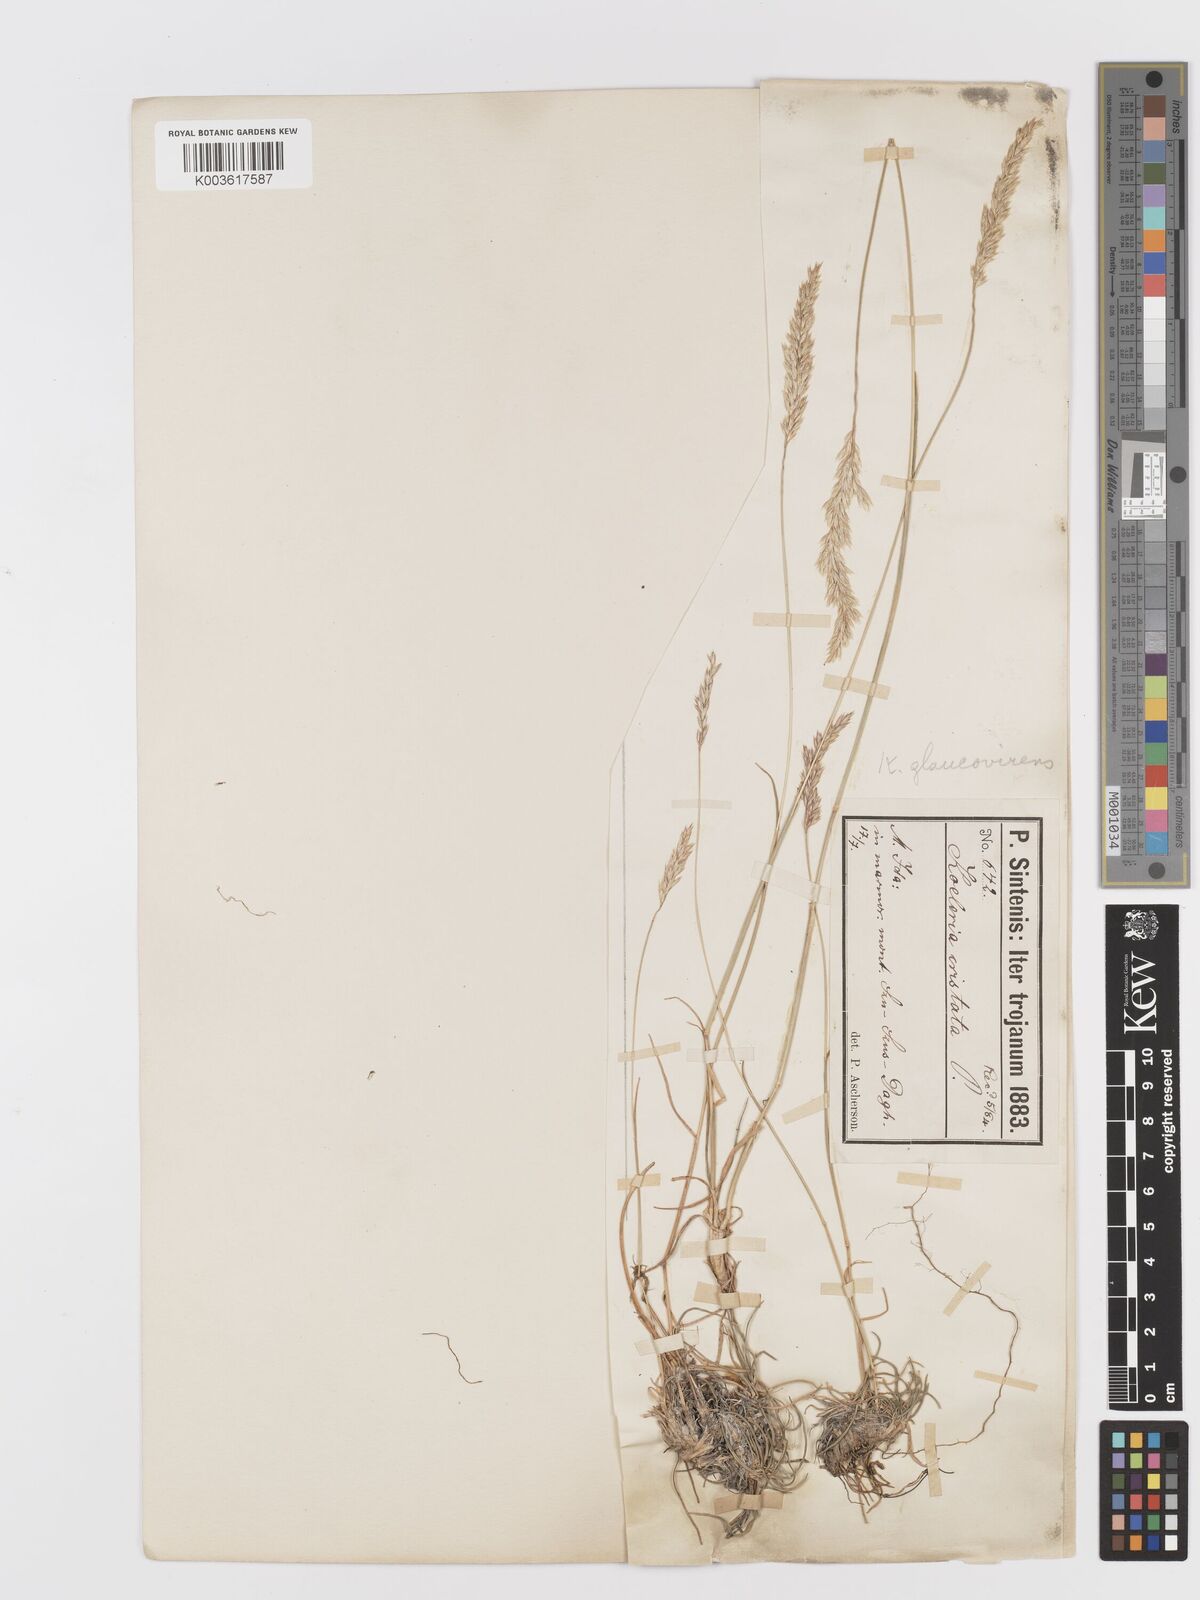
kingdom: Plantae
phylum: Tracheophyta
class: Liliopsida
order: Poales
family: Poaceae
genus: Koeleria
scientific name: Koeleria macrantha
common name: Crested hair-grass
